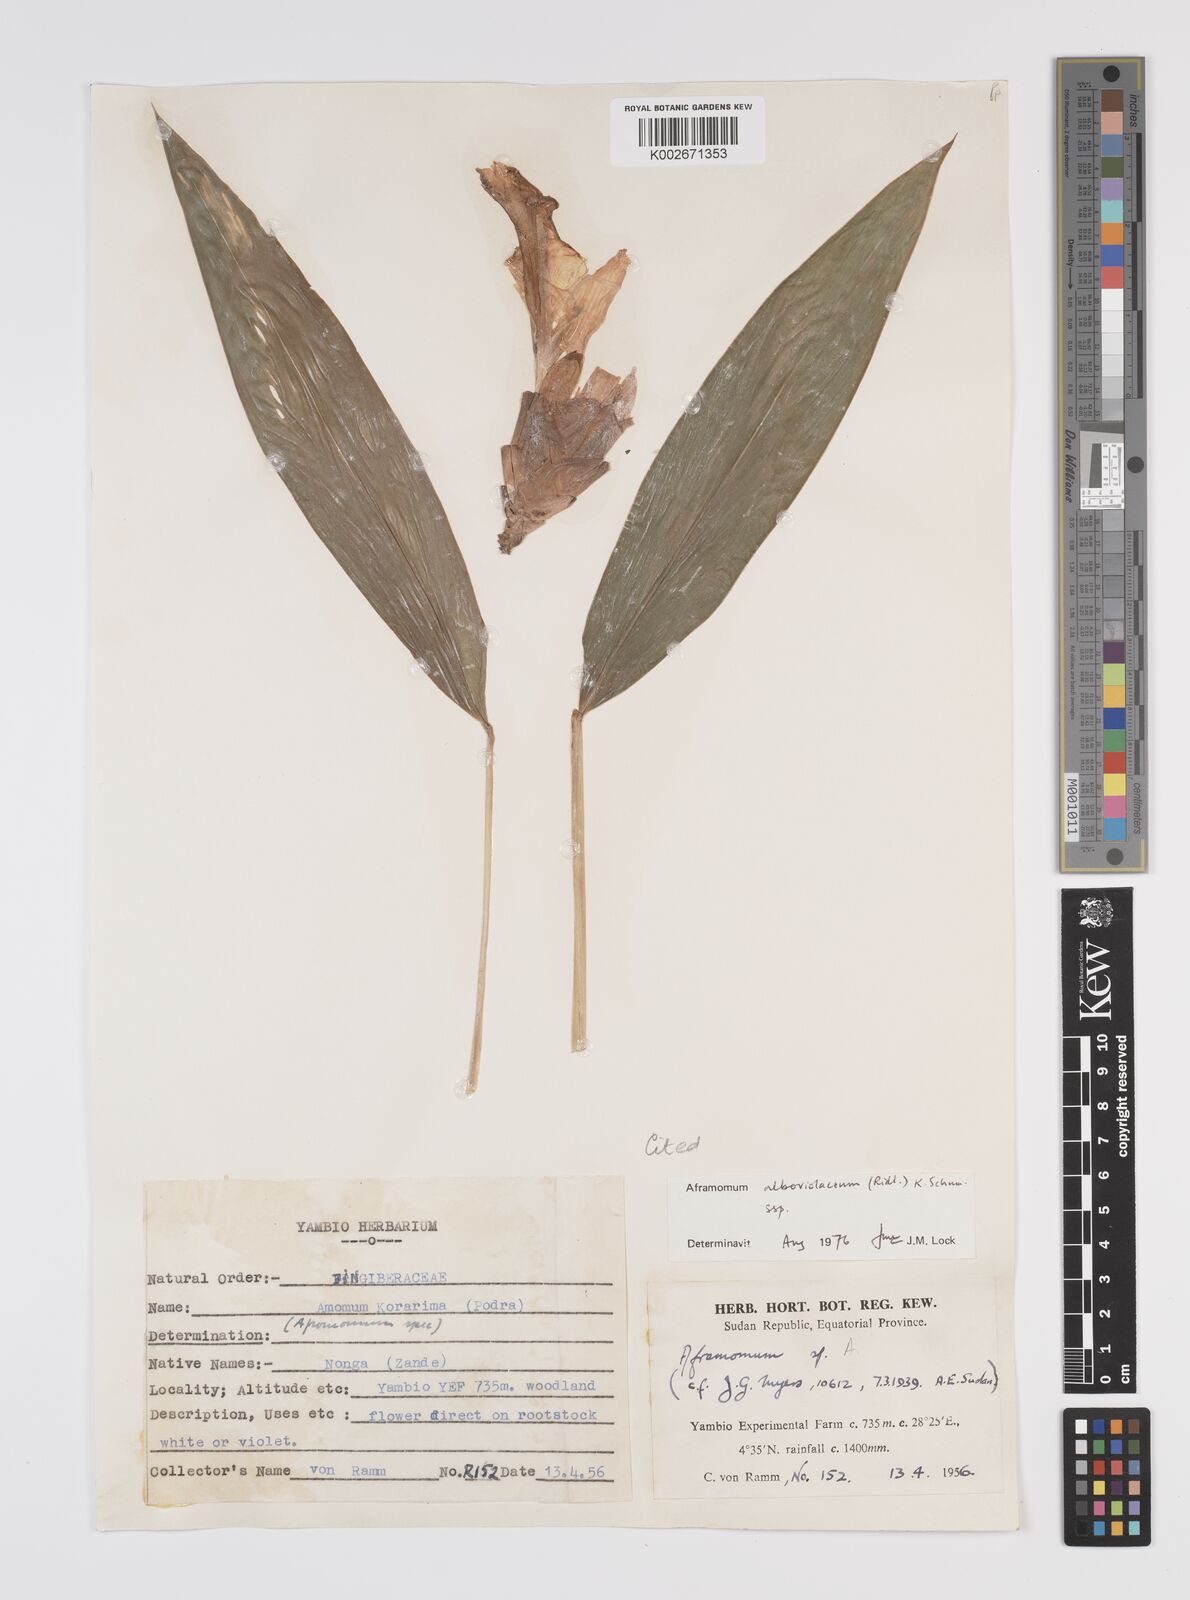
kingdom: Plantae
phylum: Tracheophyta
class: Liliopsida
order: Zingiberales
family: Zingiberaceae
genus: Aframomum
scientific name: Aframomum alboviolaceum
